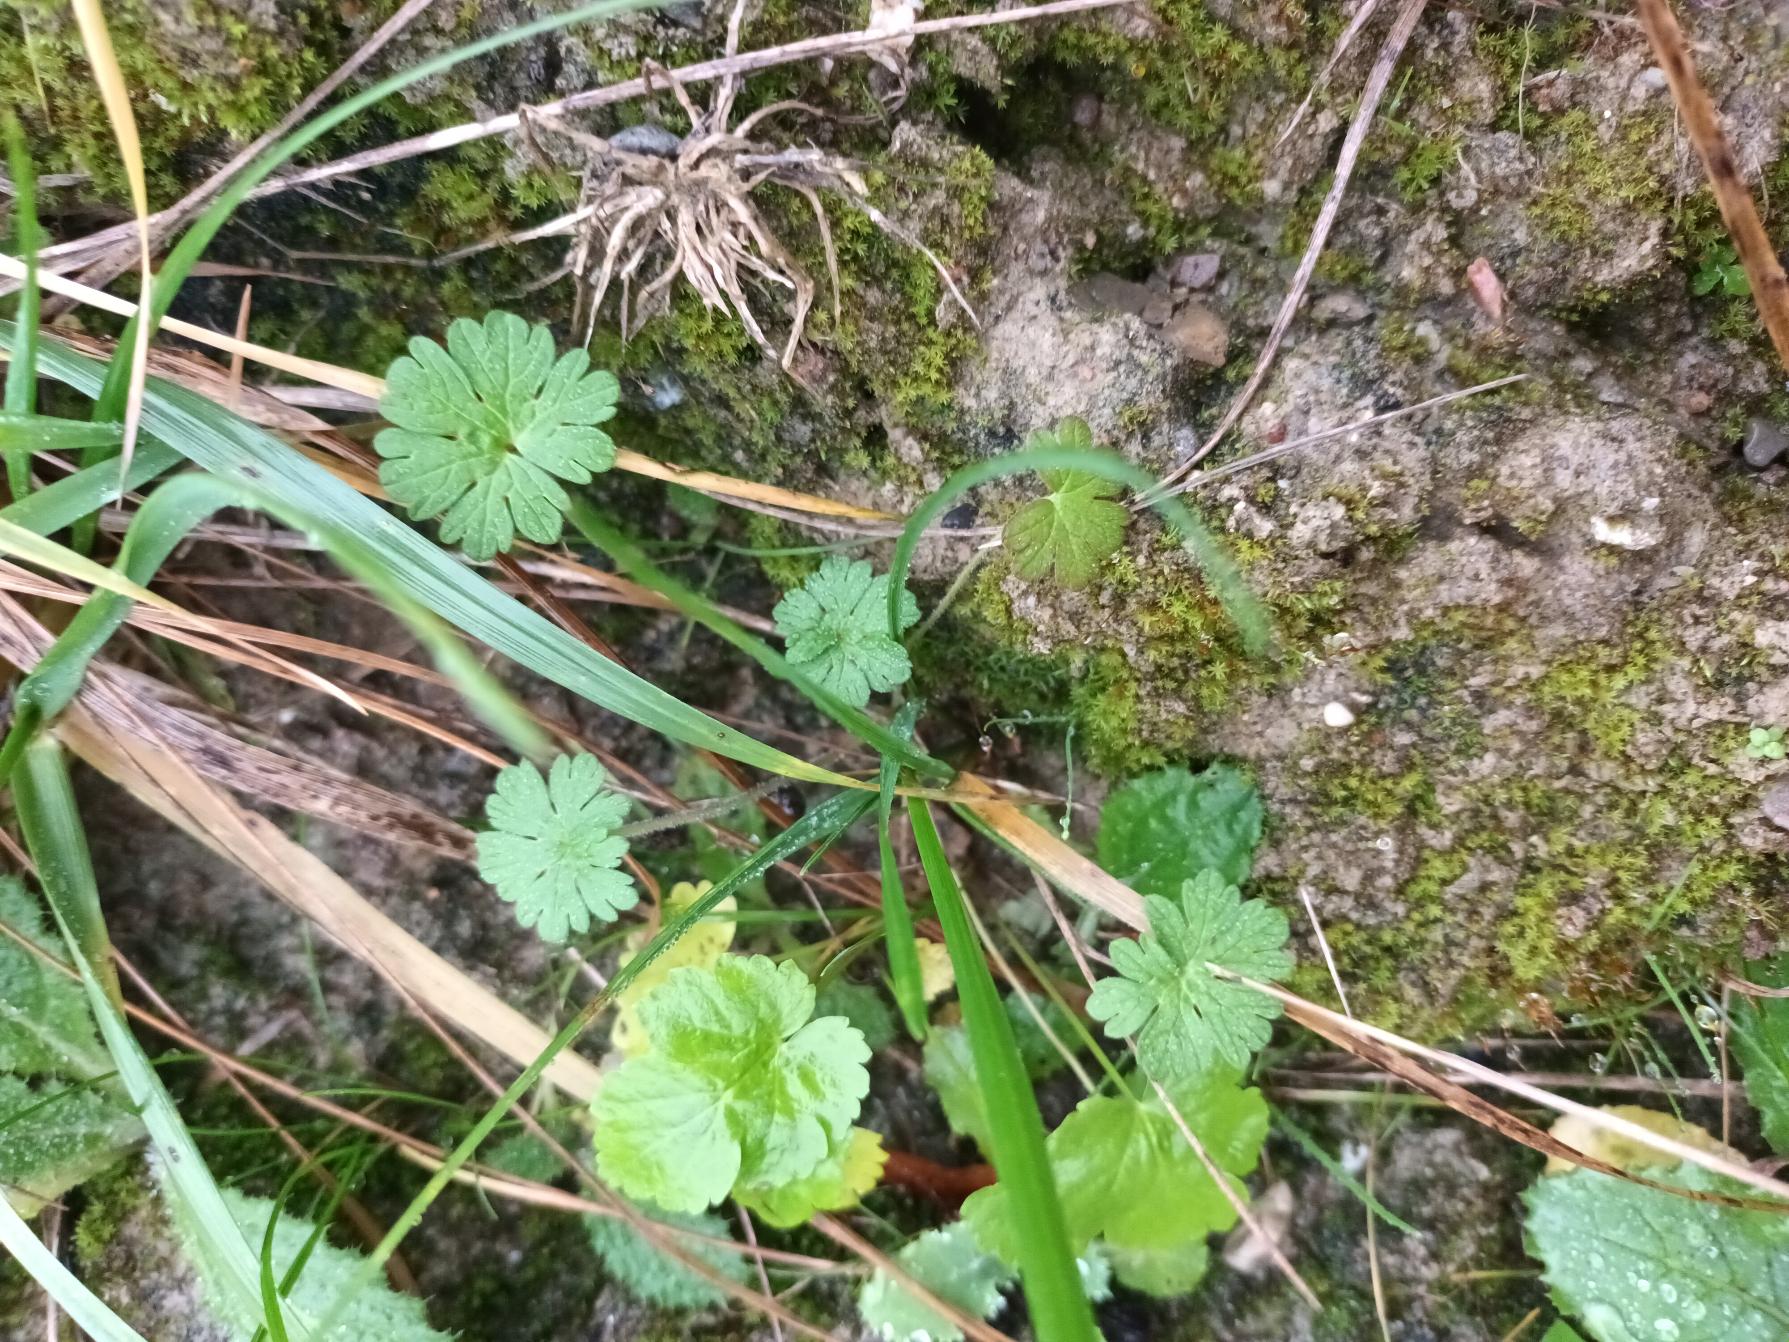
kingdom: Plantae
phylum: Tracheophyta
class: Magnoliopsida
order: Geraniales
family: Geraniaceae
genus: Geranium
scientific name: Geranium pusillum
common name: Liden storkenæb
